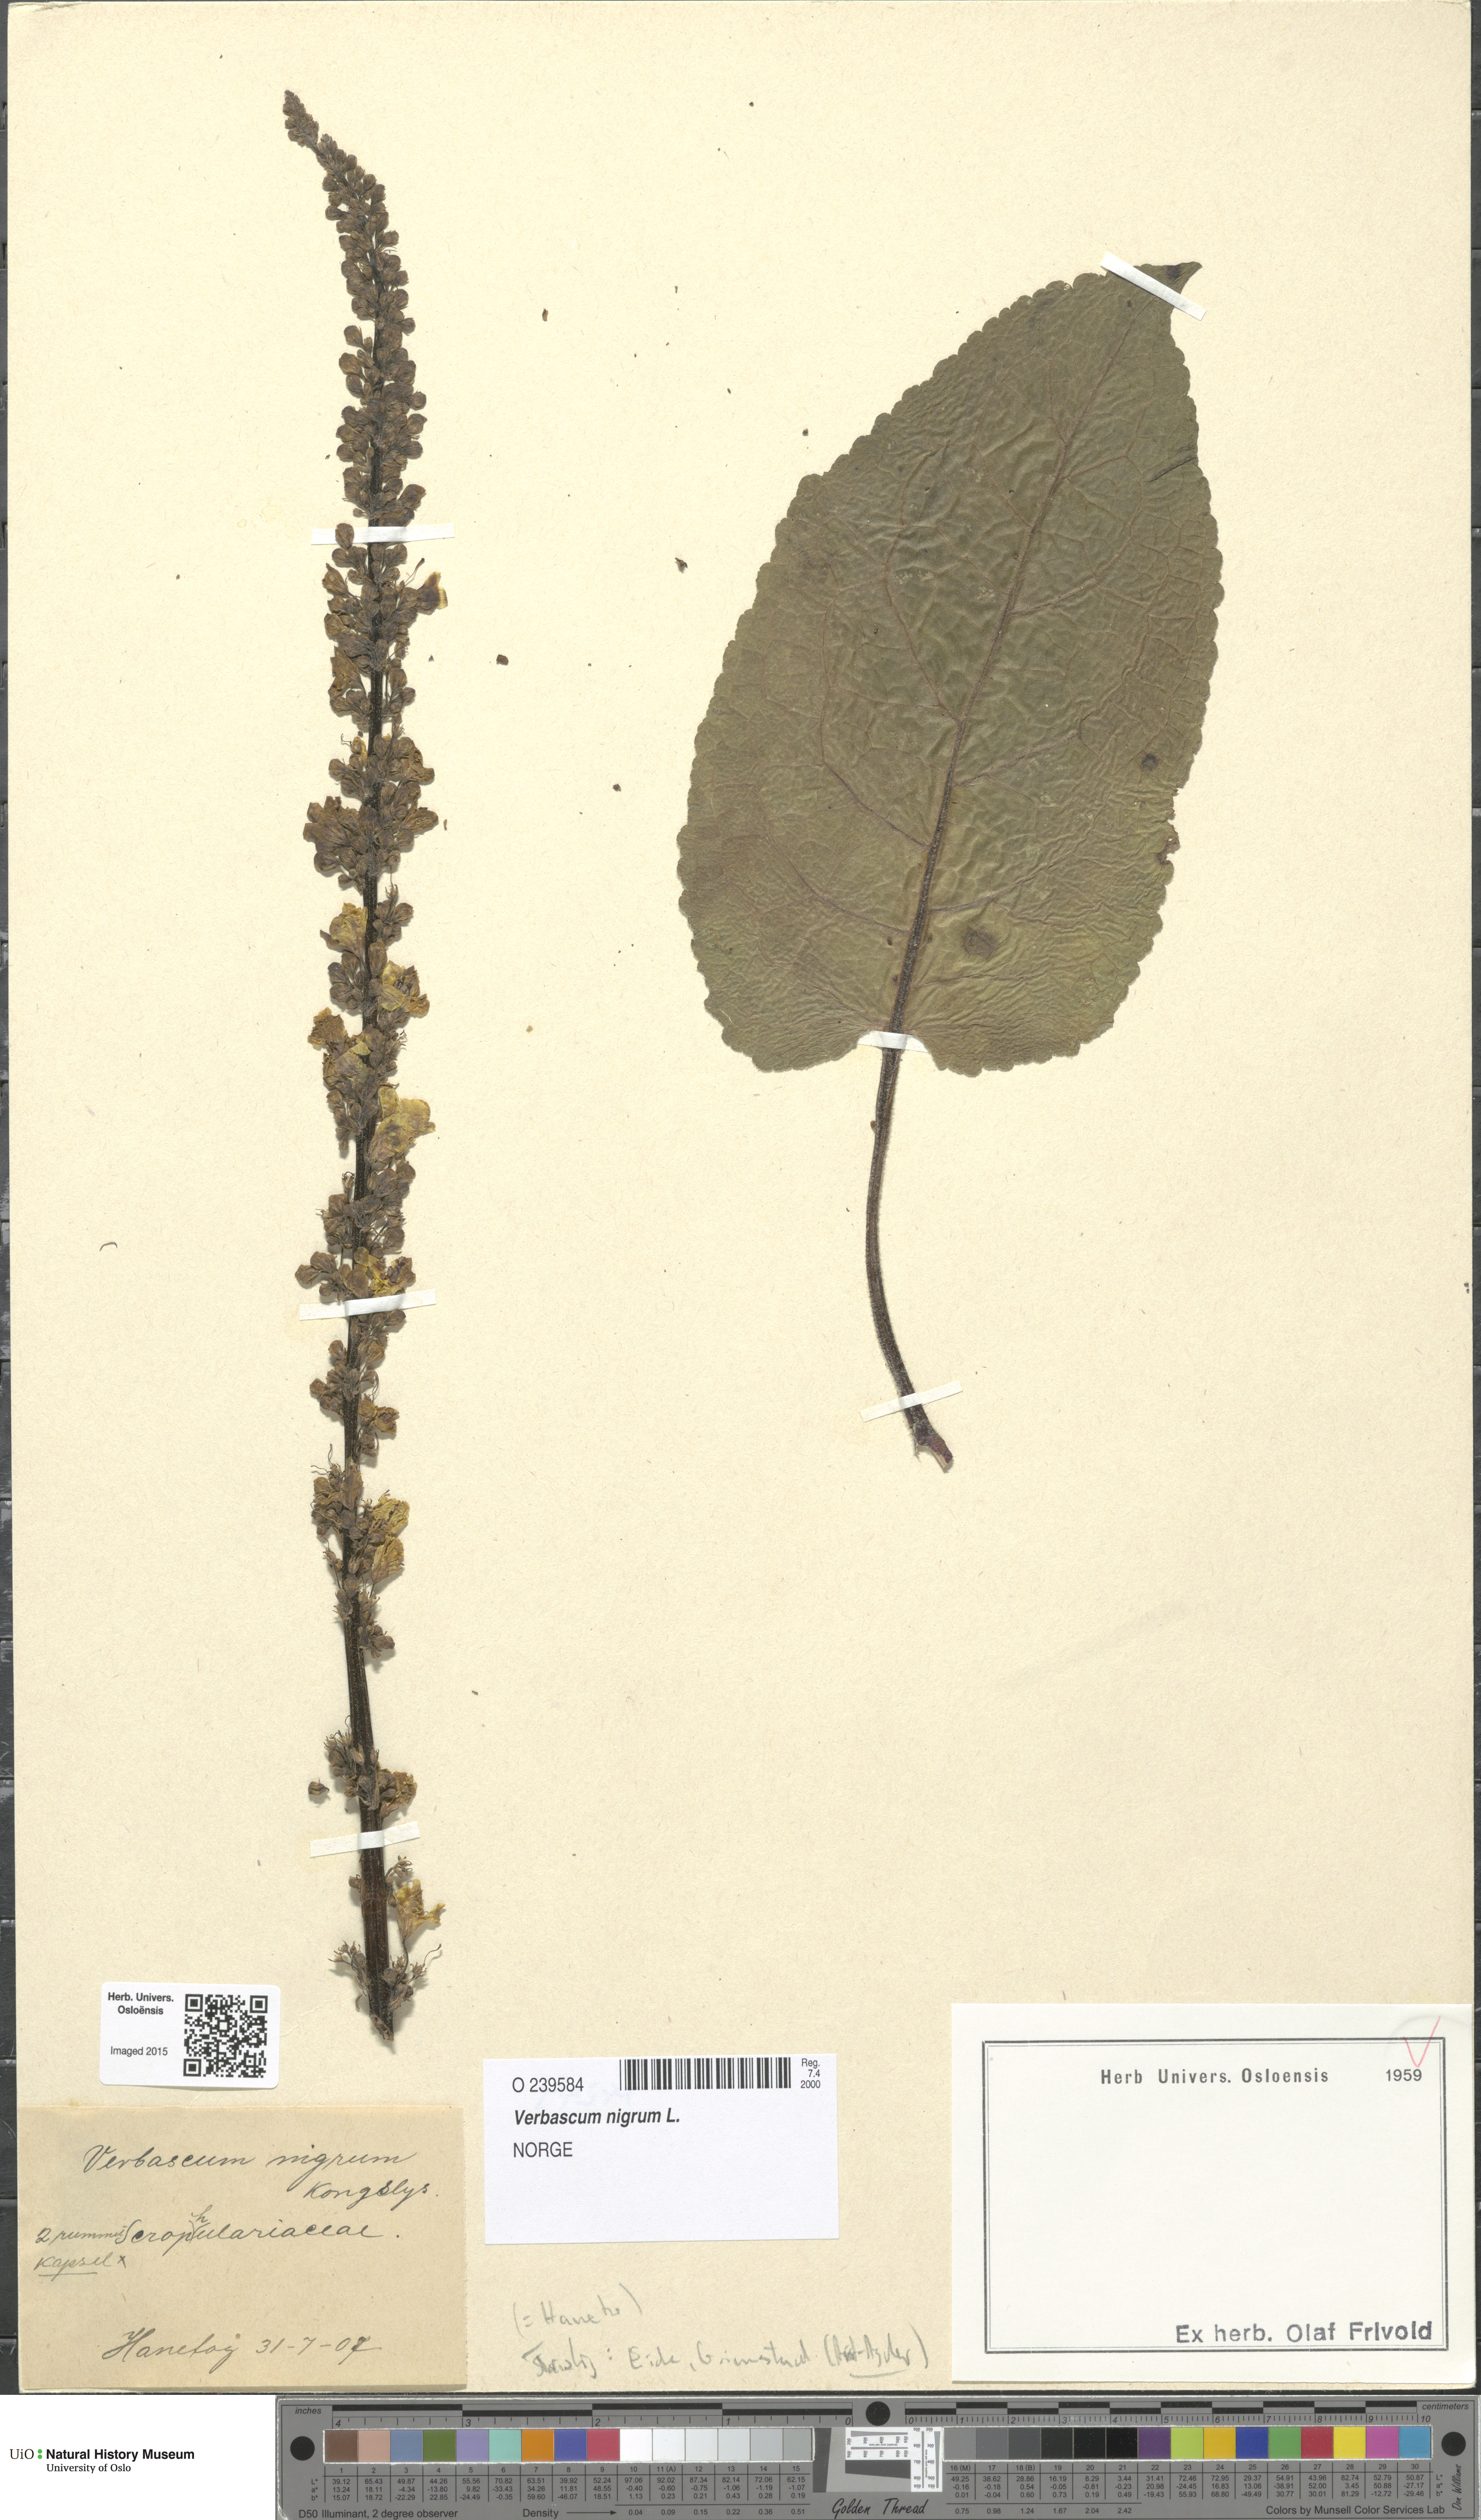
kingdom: Plantae
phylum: Tracheophyta
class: Magnoliopsida
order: Lamiales
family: Scrophulariaceae
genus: Verbascum
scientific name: Verbascum nigrum
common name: Dark mullein
